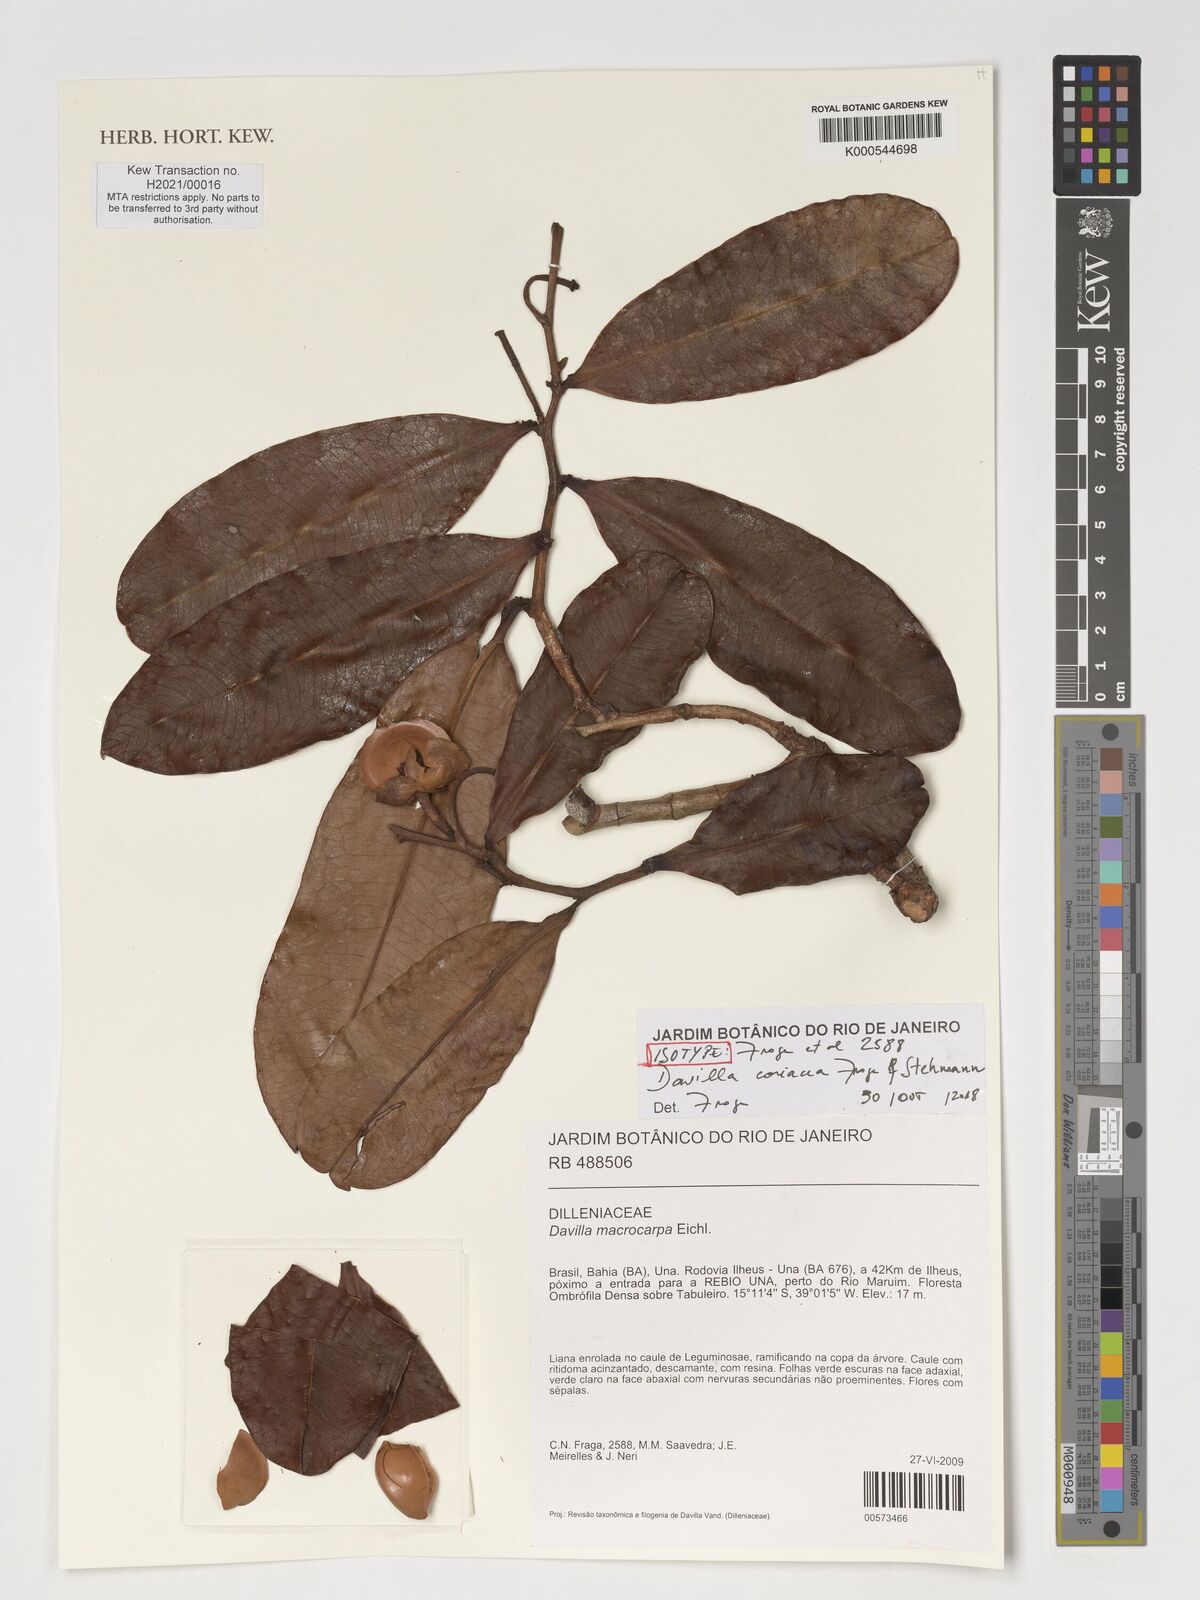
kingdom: Plantae
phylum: Tracheophyta
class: Magnoliopsida
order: Dilleniales
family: Dilleniaceae
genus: Davilla
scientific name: Davilla coriacea
